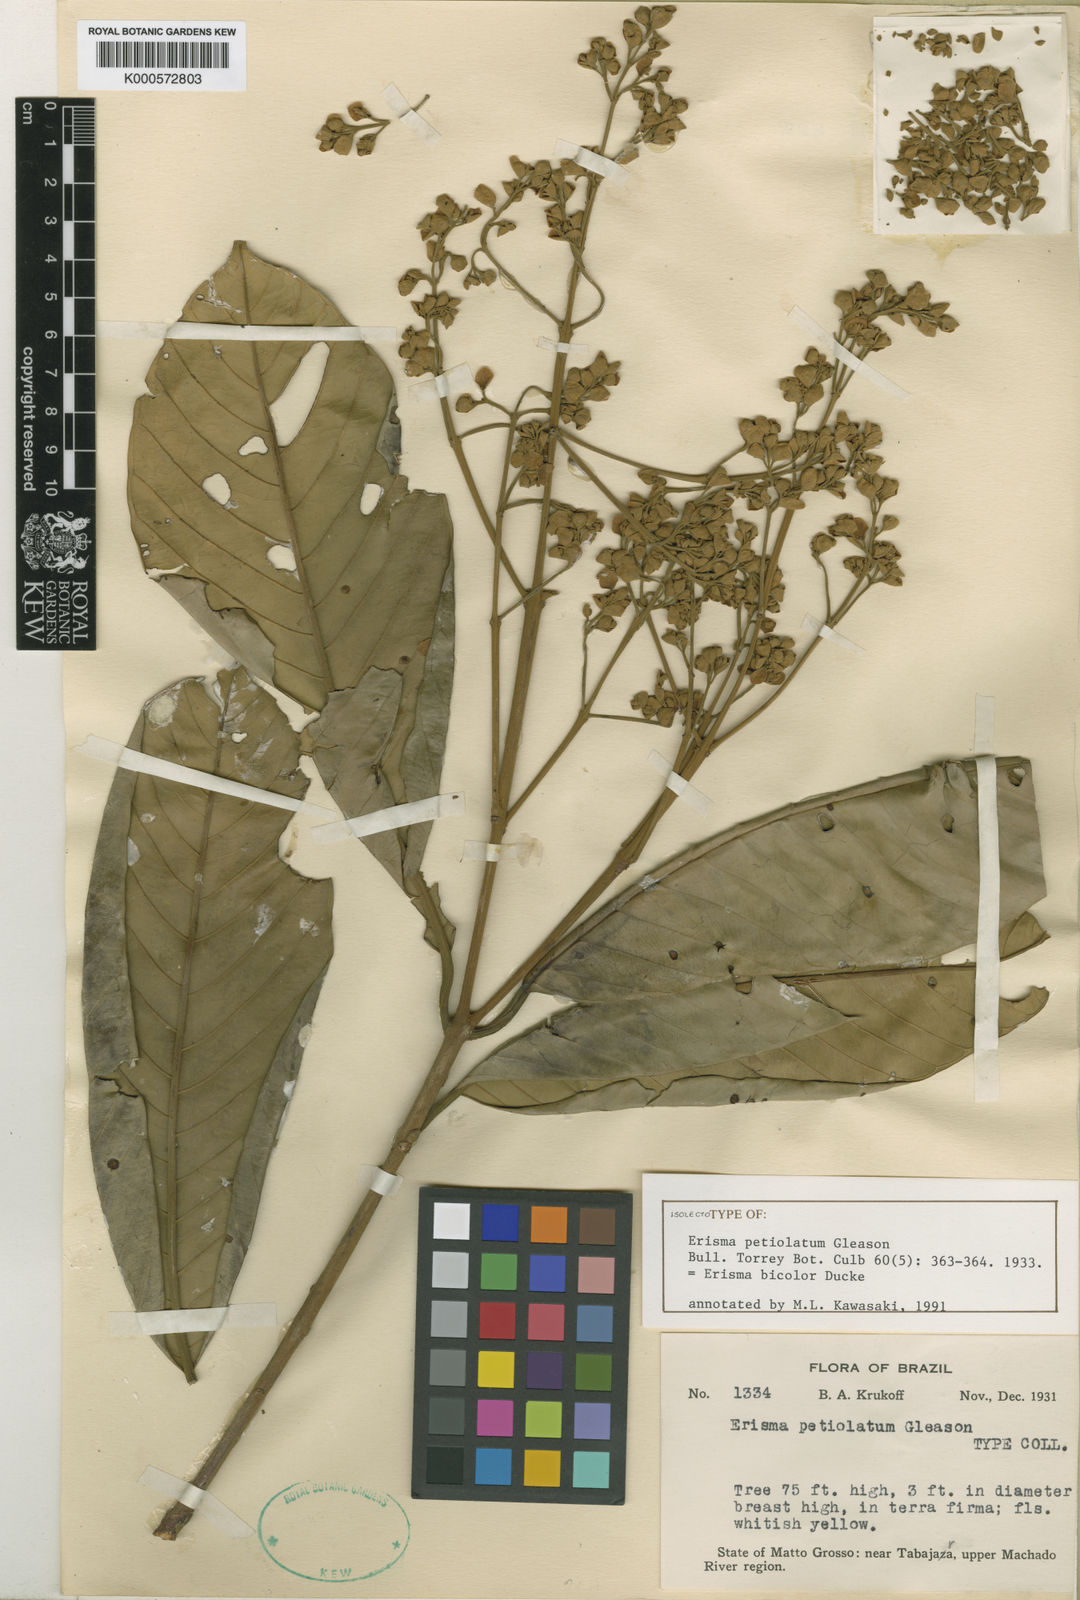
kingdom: Plantae
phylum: Tracheophyta
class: Magnoliopsida
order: Myrtales
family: Vochysiaceae
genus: Erisma
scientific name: Erisma bicolor
